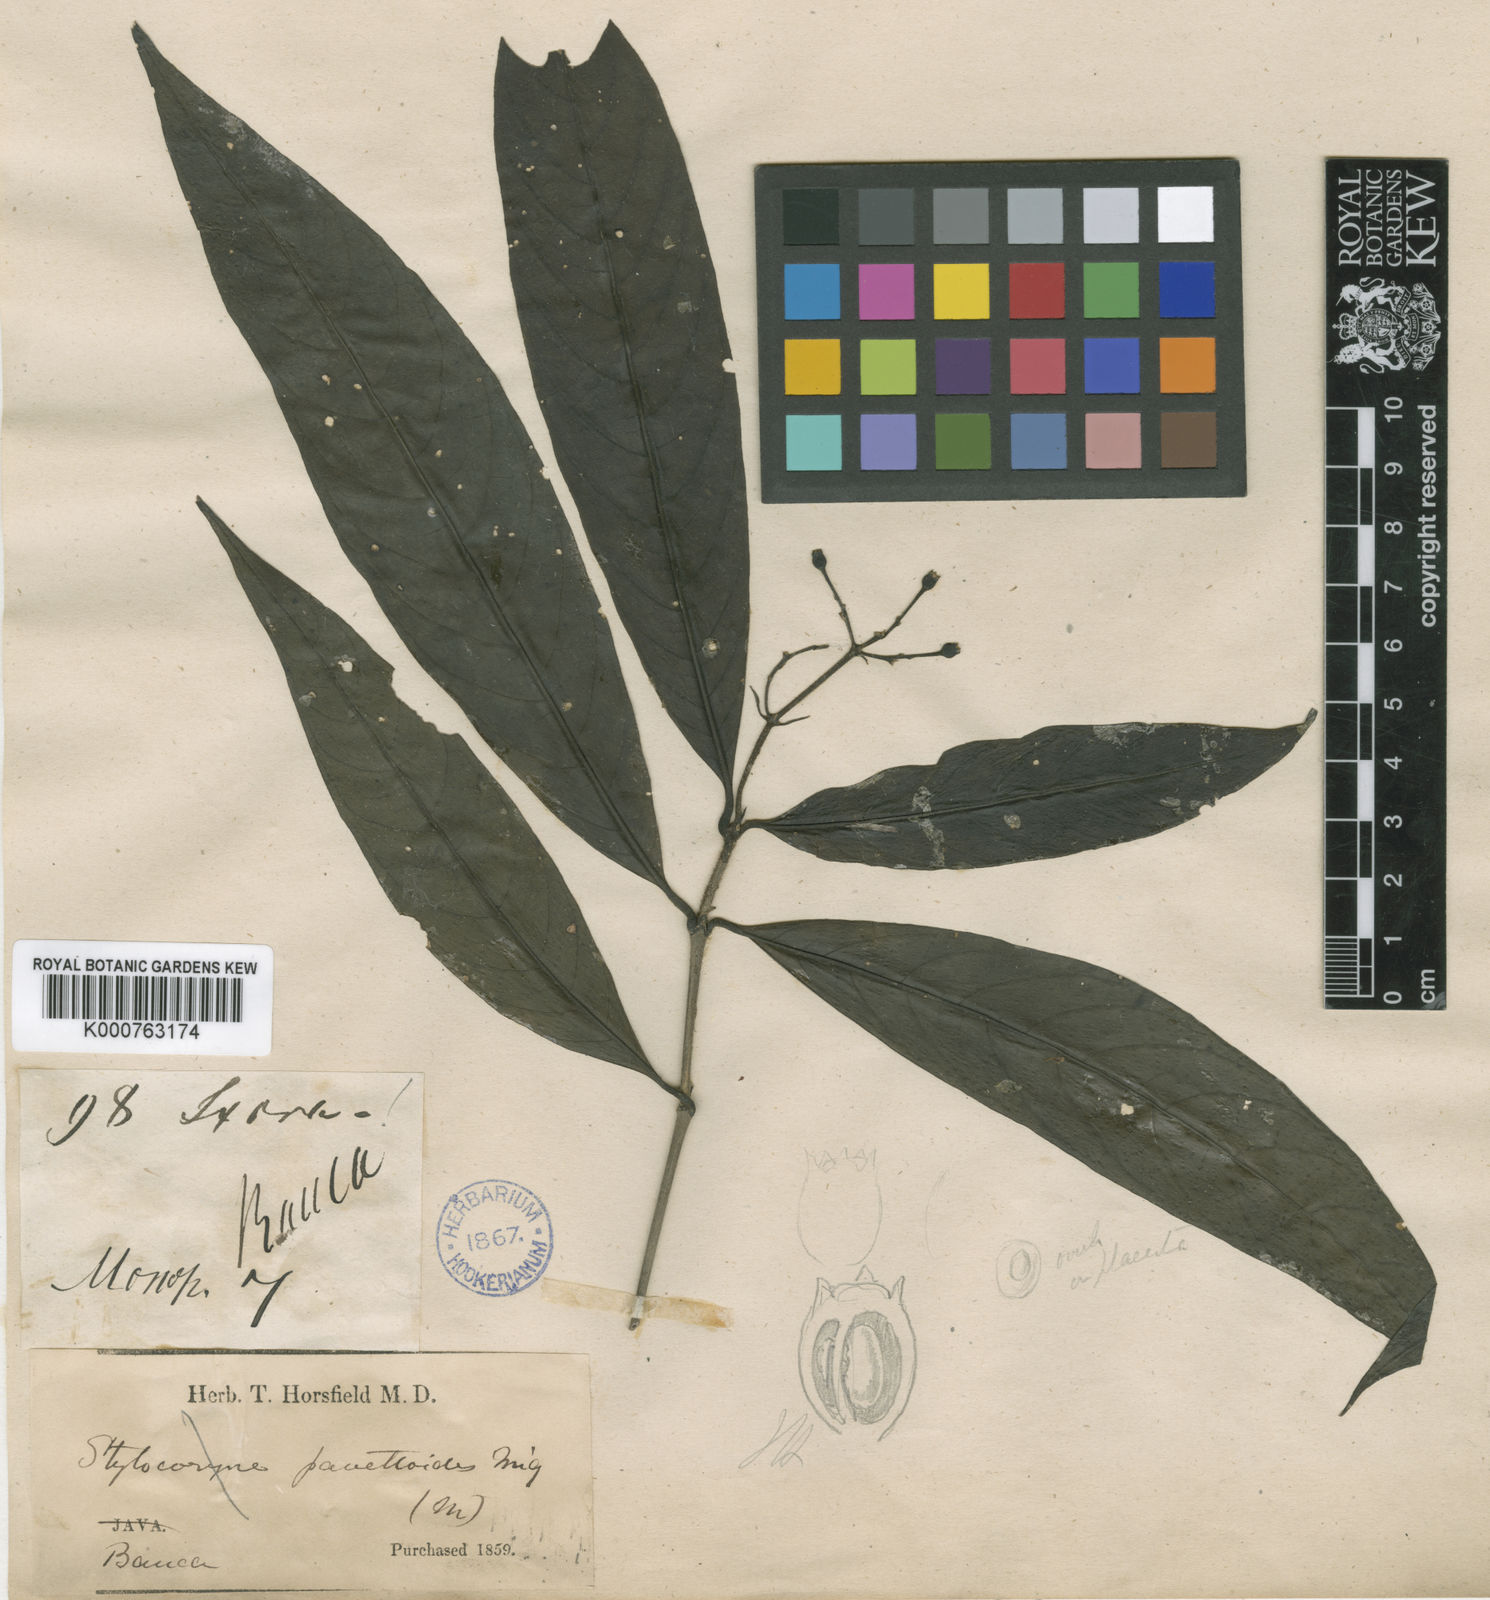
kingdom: Plantae
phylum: Tracheophyta
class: Magnoliopsida
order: Gentianales
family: Rubiaceae
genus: Tarenna
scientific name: Tarenna pavettoides
